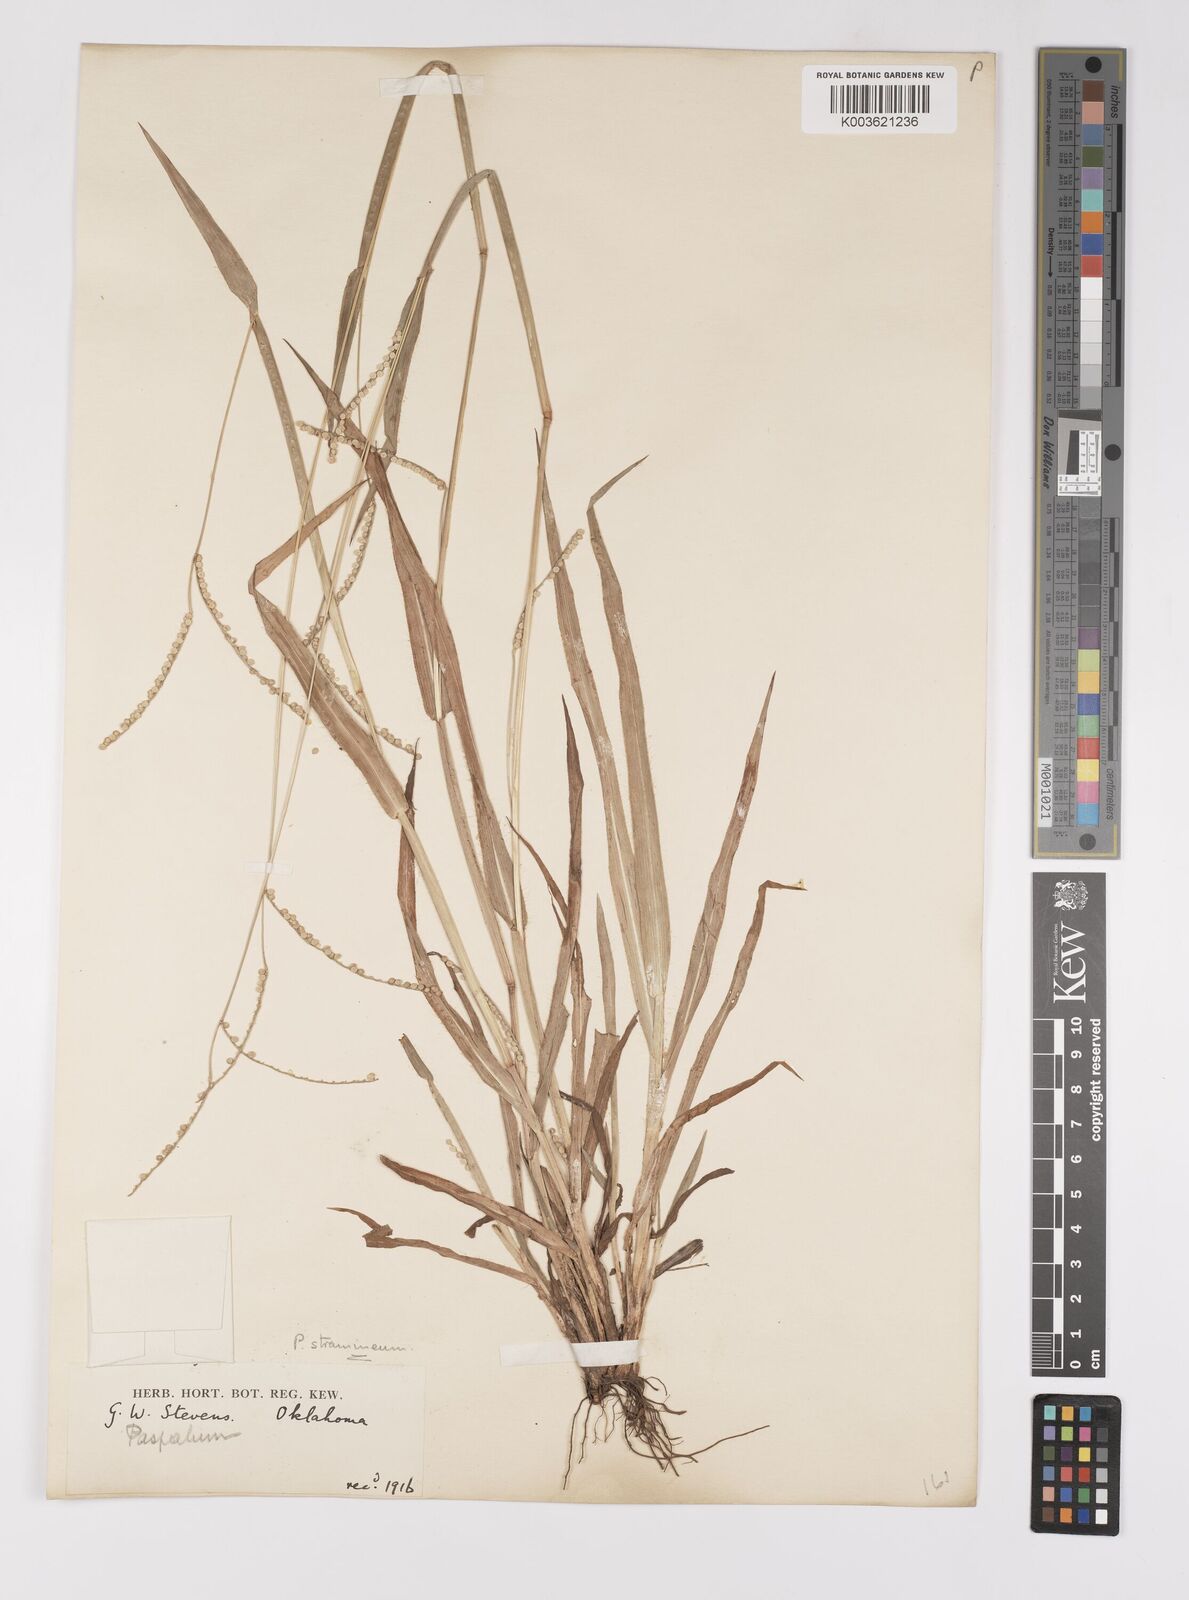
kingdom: Plantae
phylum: Tracheophyta
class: Liliopsida
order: Poales
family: Poaceae
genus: Paspalum
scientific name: Paspalum setaceum
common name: Slender paspalum
